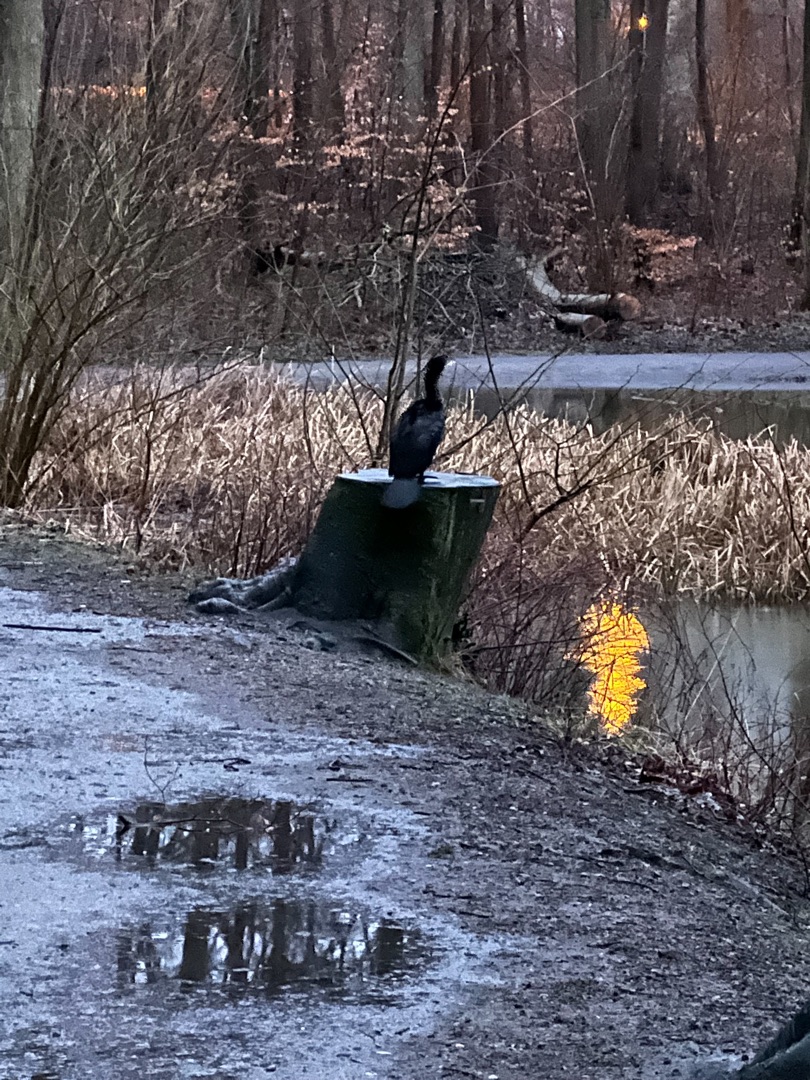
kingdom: Animalia
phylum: Chordata
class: Aves
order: Suliformes
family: Phalacrocoracidae
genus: Phalacrocorax
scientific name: Phalacrocorax carbo
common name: Skarv
